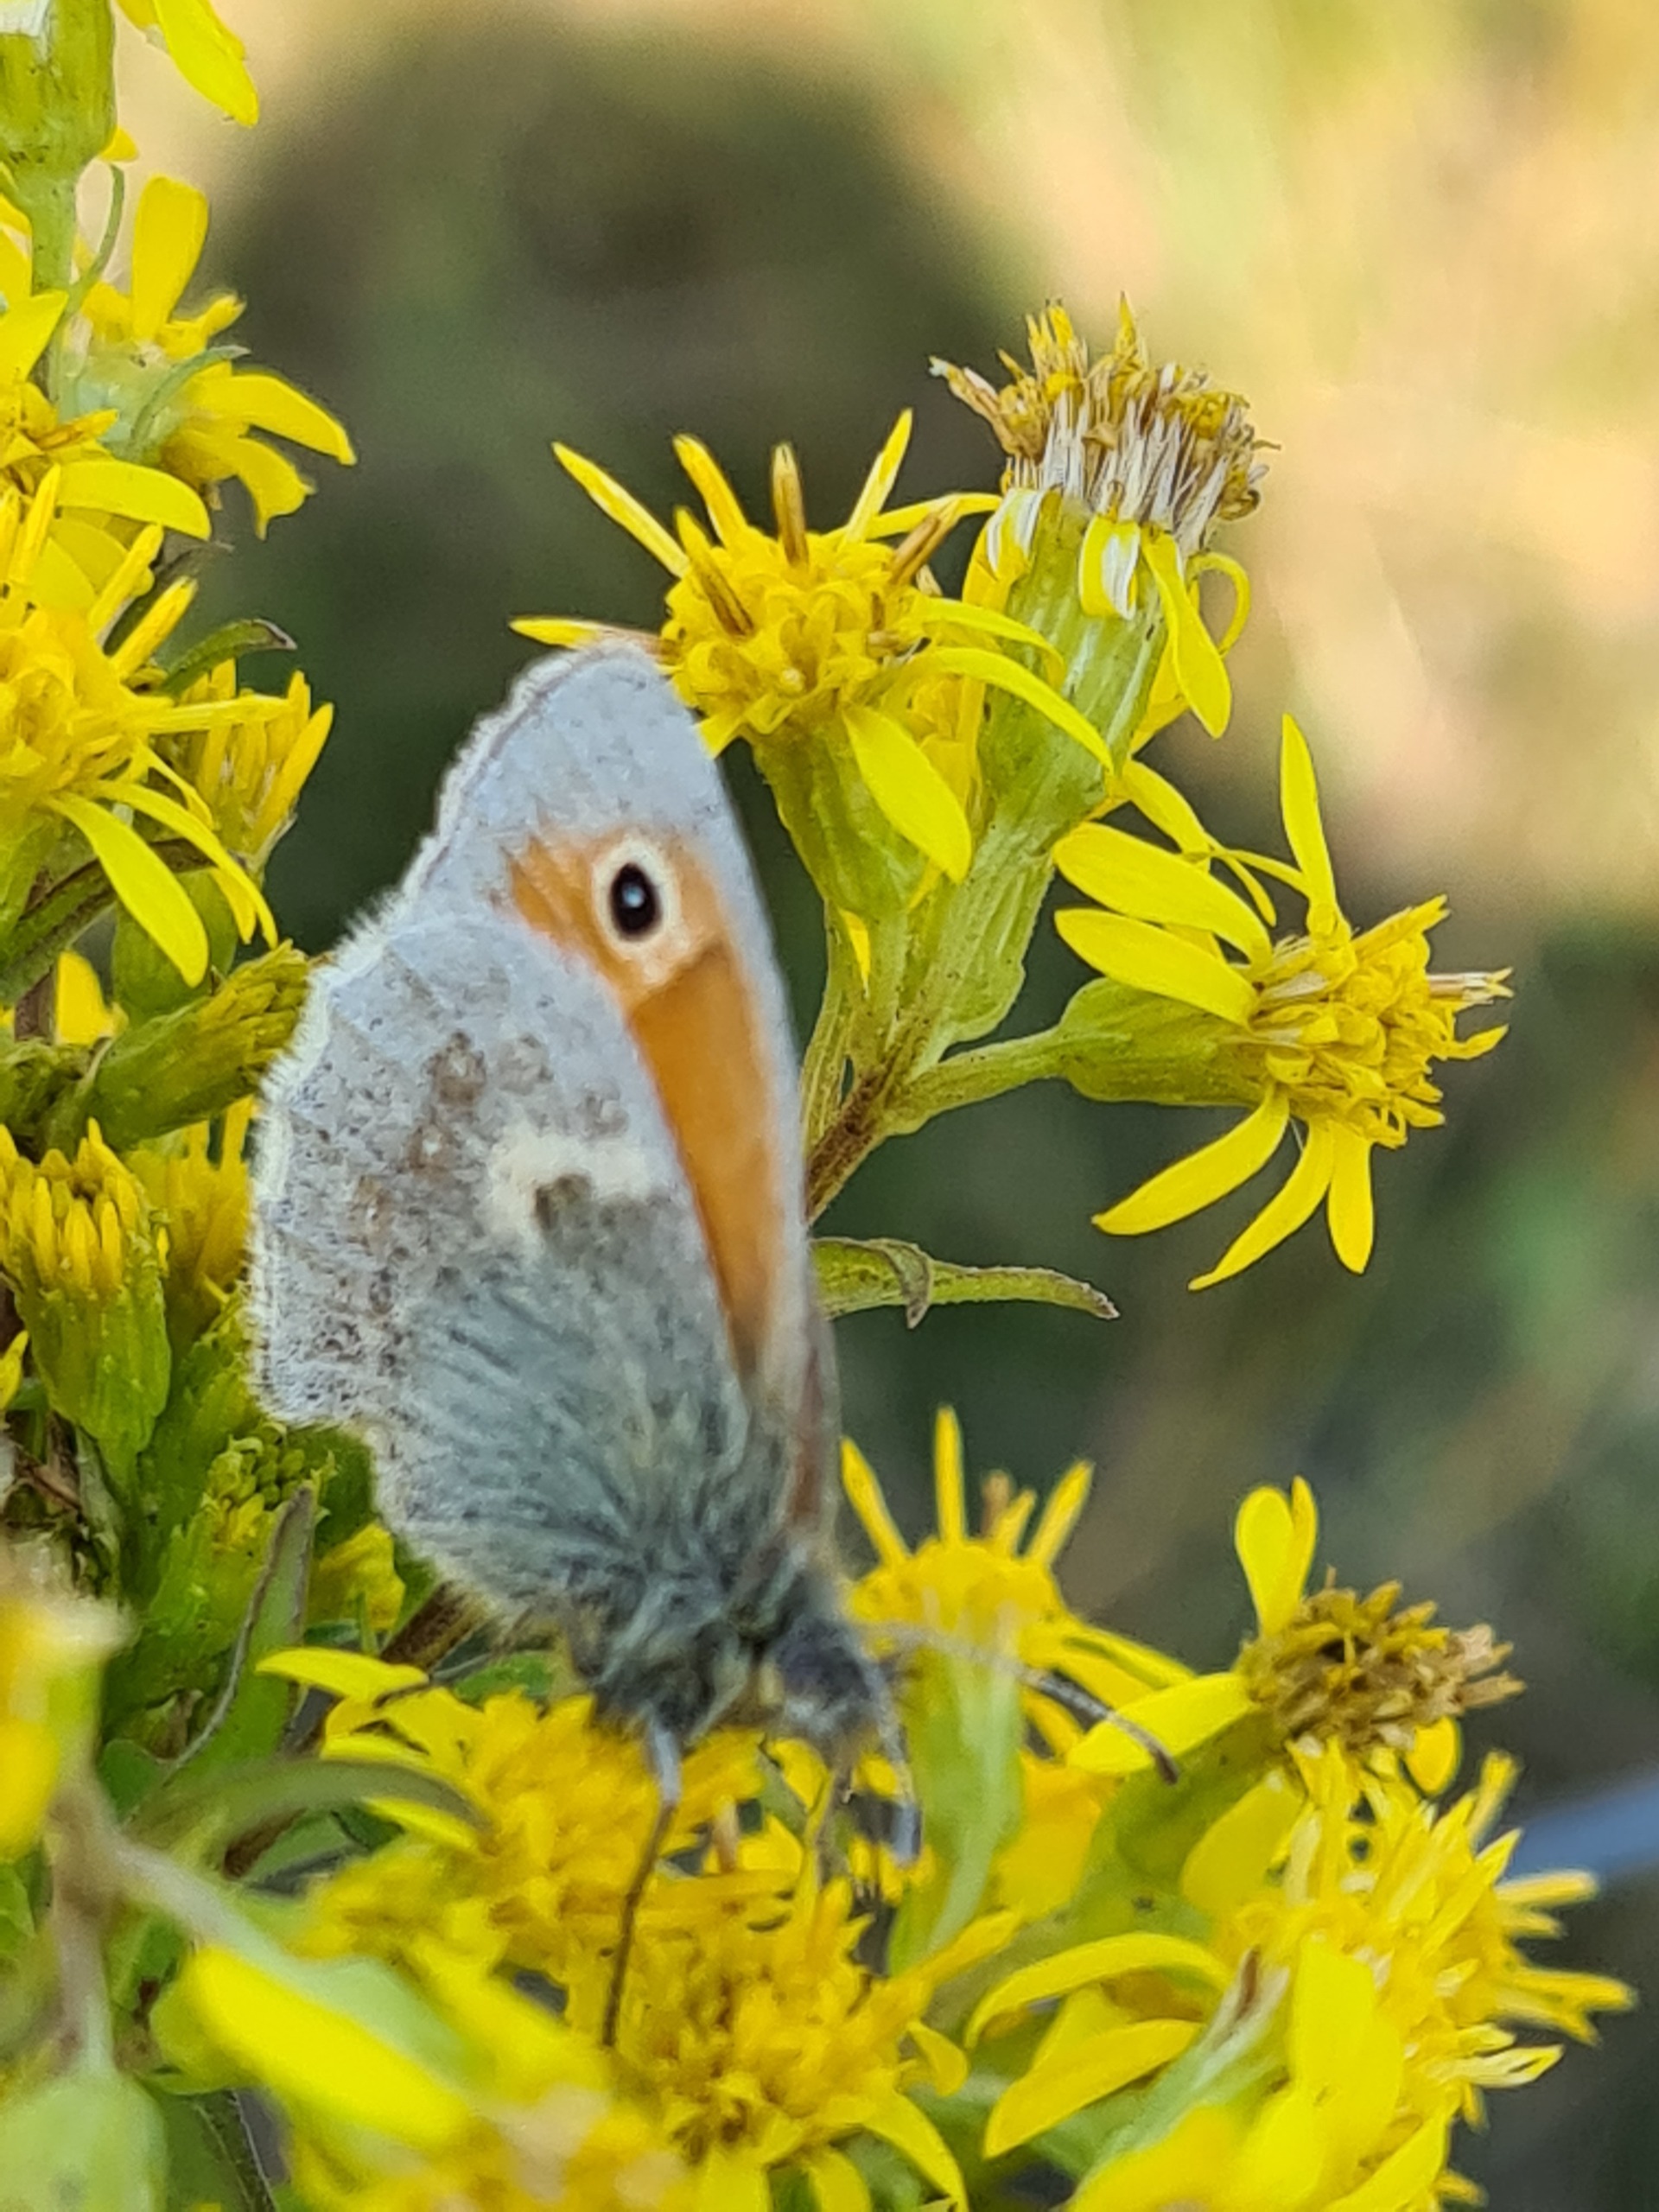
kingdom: Animalia
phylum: Arthropoda
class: Insecta
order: Lepidoptera
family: Nymphalidae
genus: Coenonympha
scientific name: Coenonympha pamphilus
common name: Okkergul randøje
